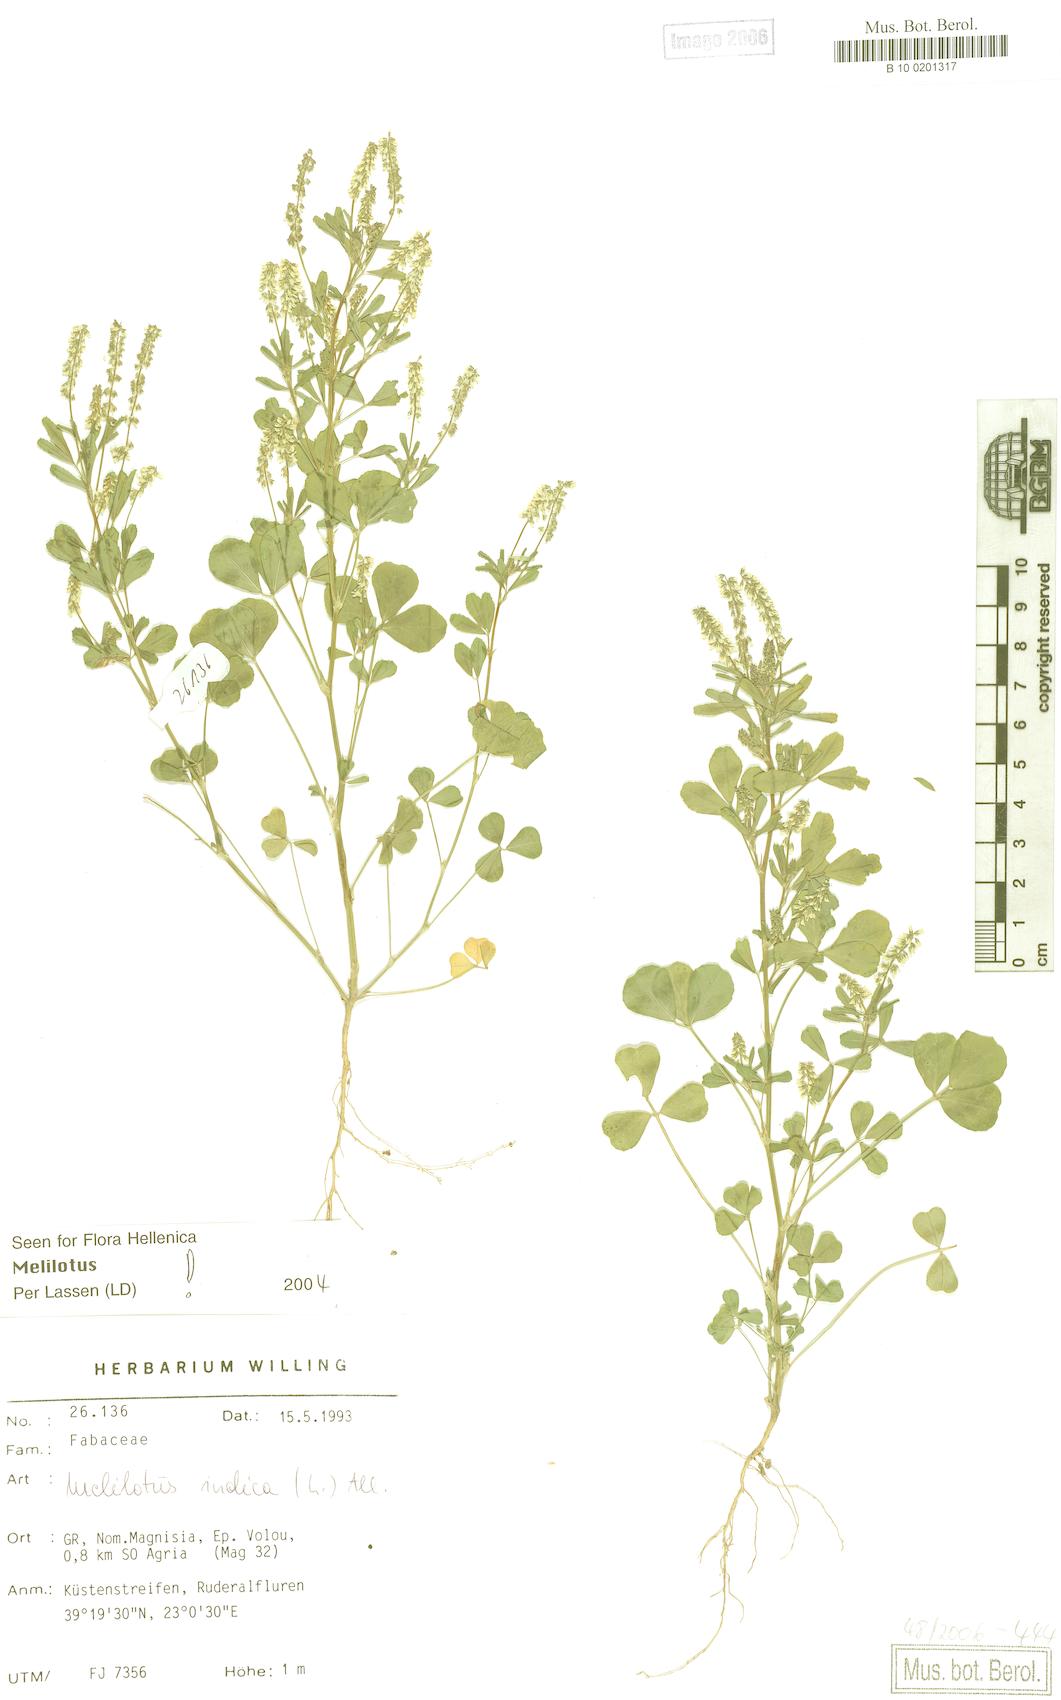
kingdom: Plantae
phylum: Tracheophyta
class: Magnoliopsida
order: Fabales
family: Fabaceae
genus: Melilotus
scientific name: Melilotus indicus
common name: Small melilot
